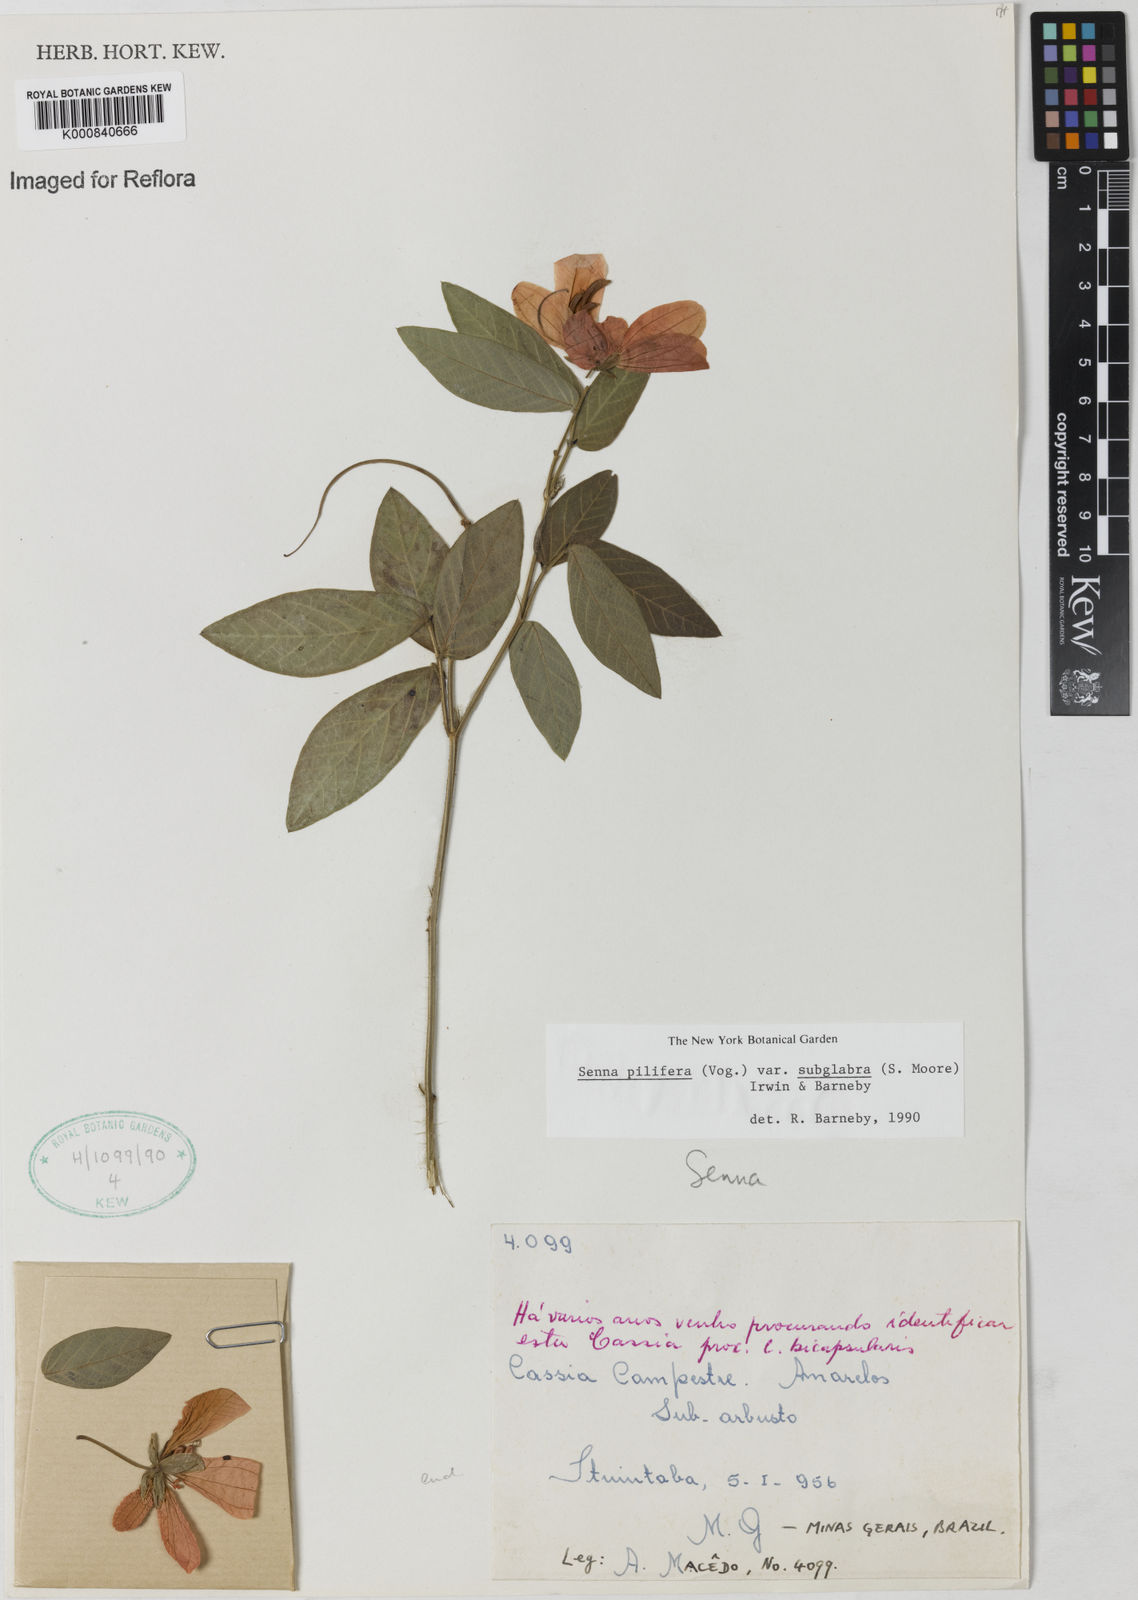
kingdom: Plantae
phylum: Tracheophyta
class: Magnoliopsida
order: Fabales
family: Fabaceae
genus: Senna
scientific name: Senna pilifera
